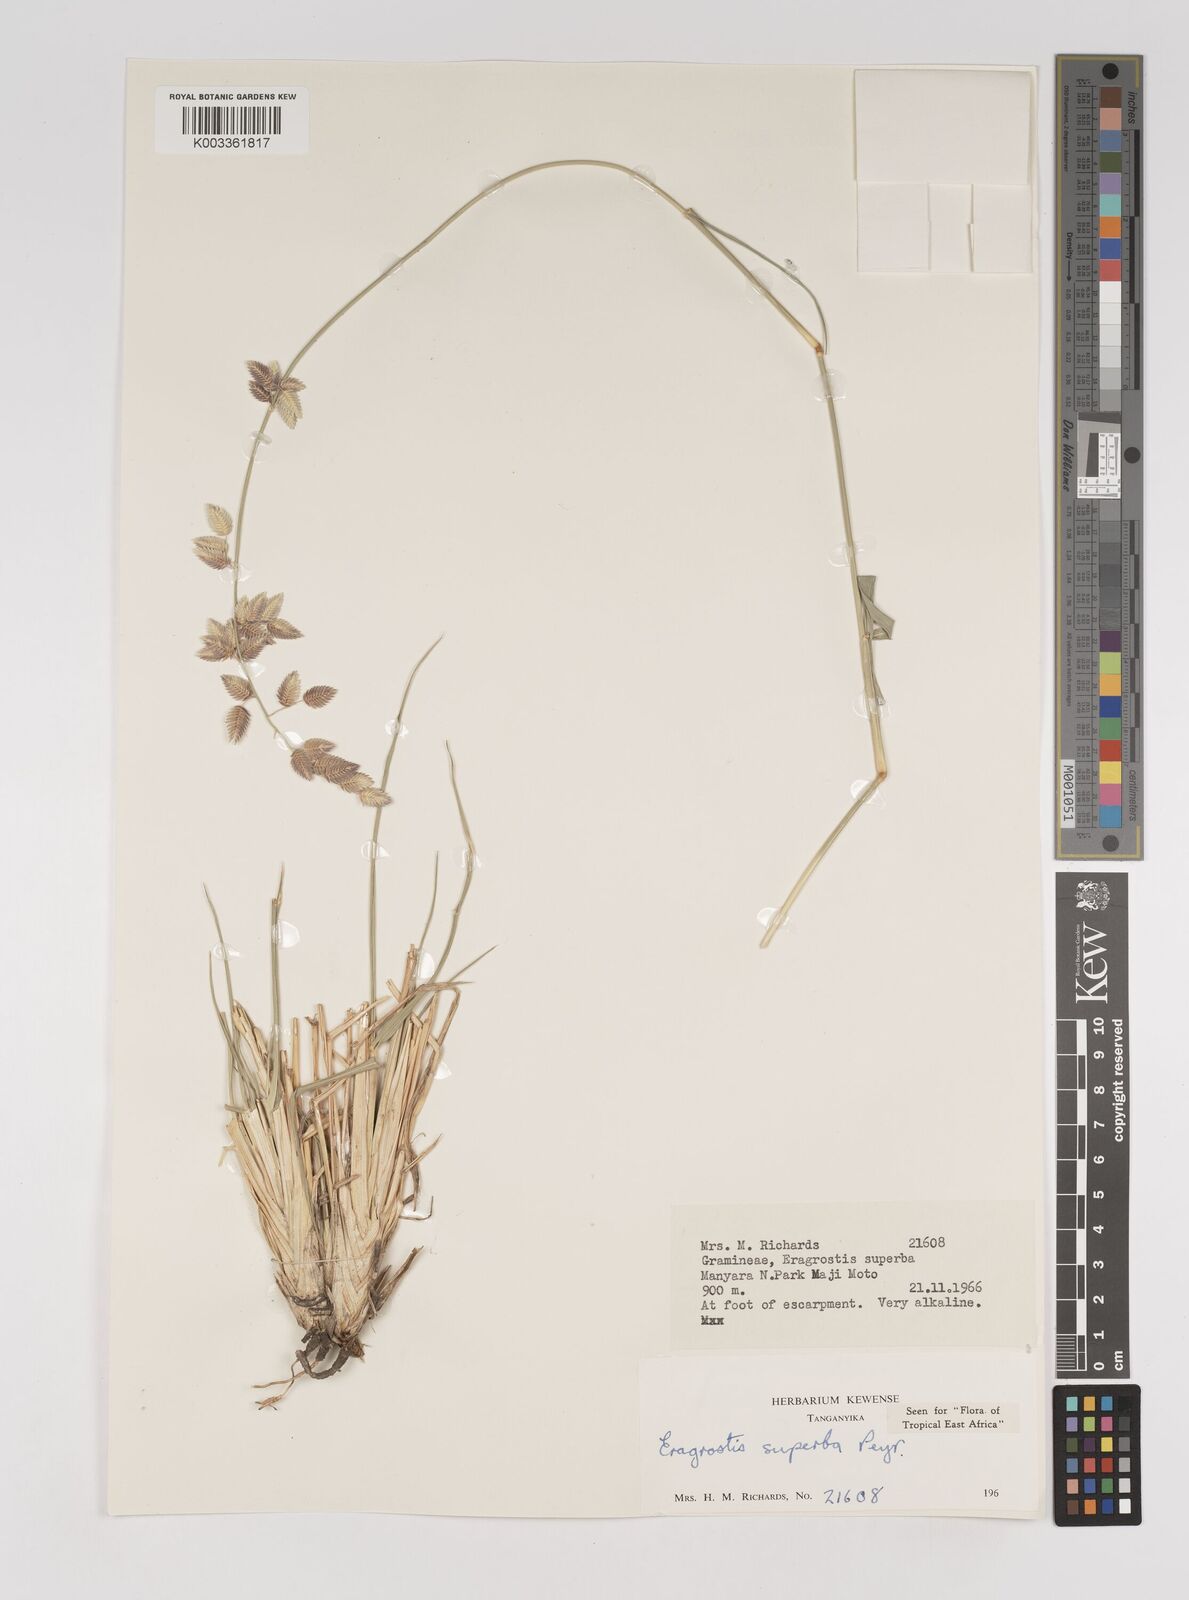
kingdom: Plantae
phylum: Tracheophyta
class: Liliopsida
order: Poales
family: Poaceae
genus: Eragrostis
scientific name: Eragrostis superba
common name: Wilman lovegrass
